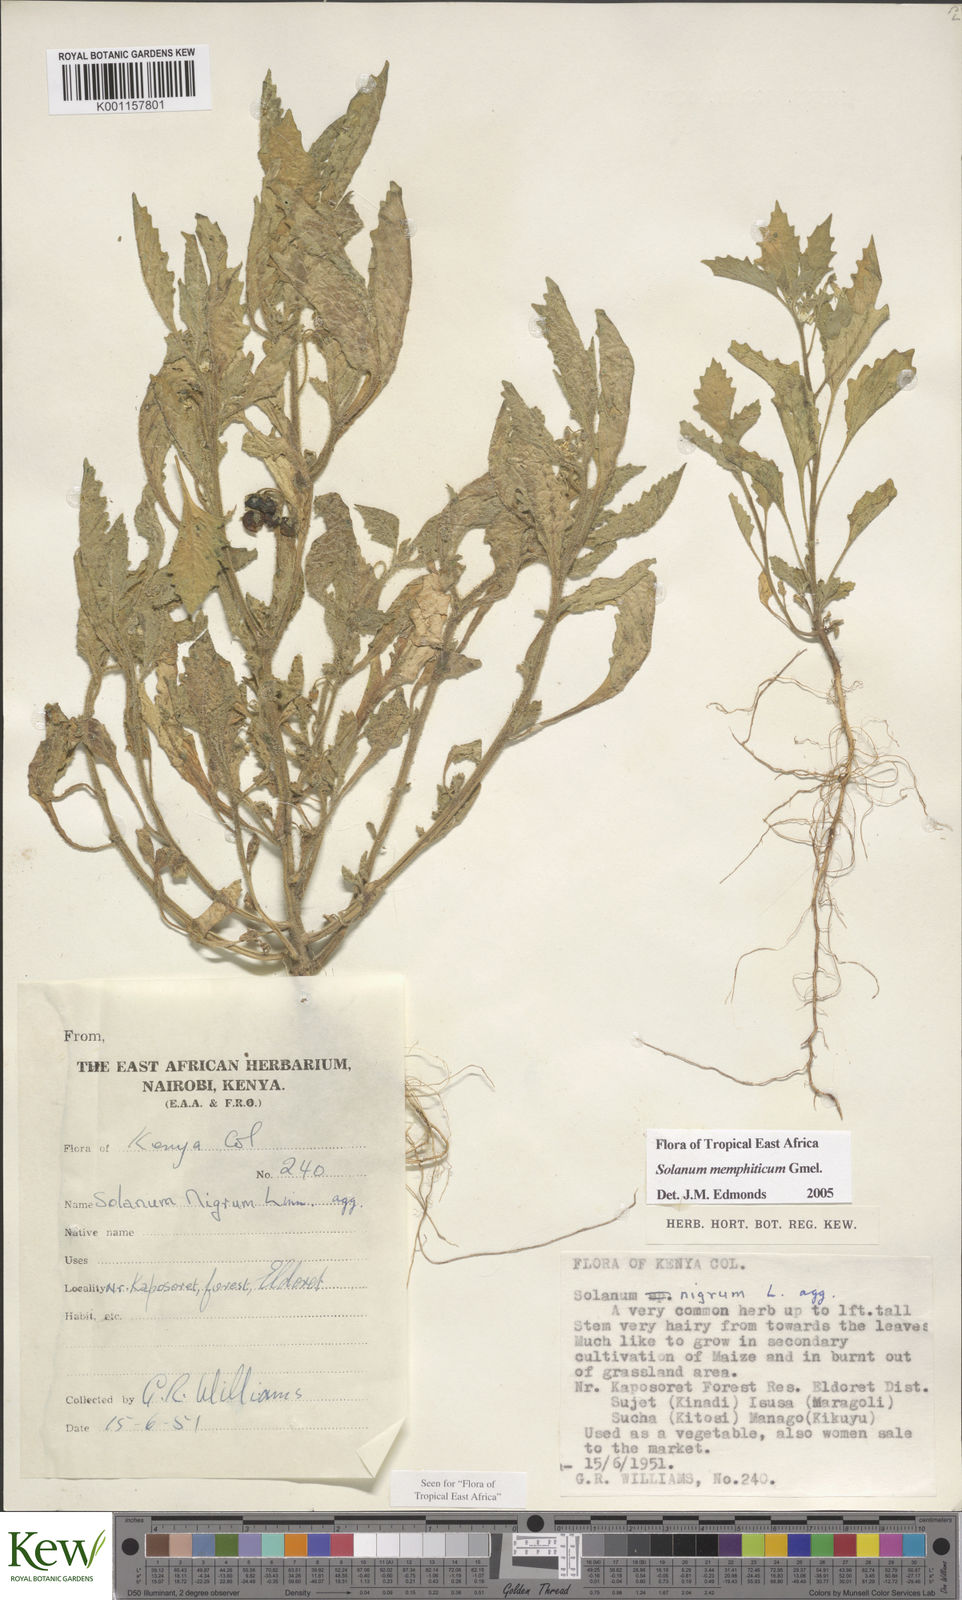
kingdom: Plantae
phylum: Tracheophyta
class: Magnoliopsida
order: Solanales
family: Solanaceae
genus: Solanum
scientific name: Solanum memphiticum
